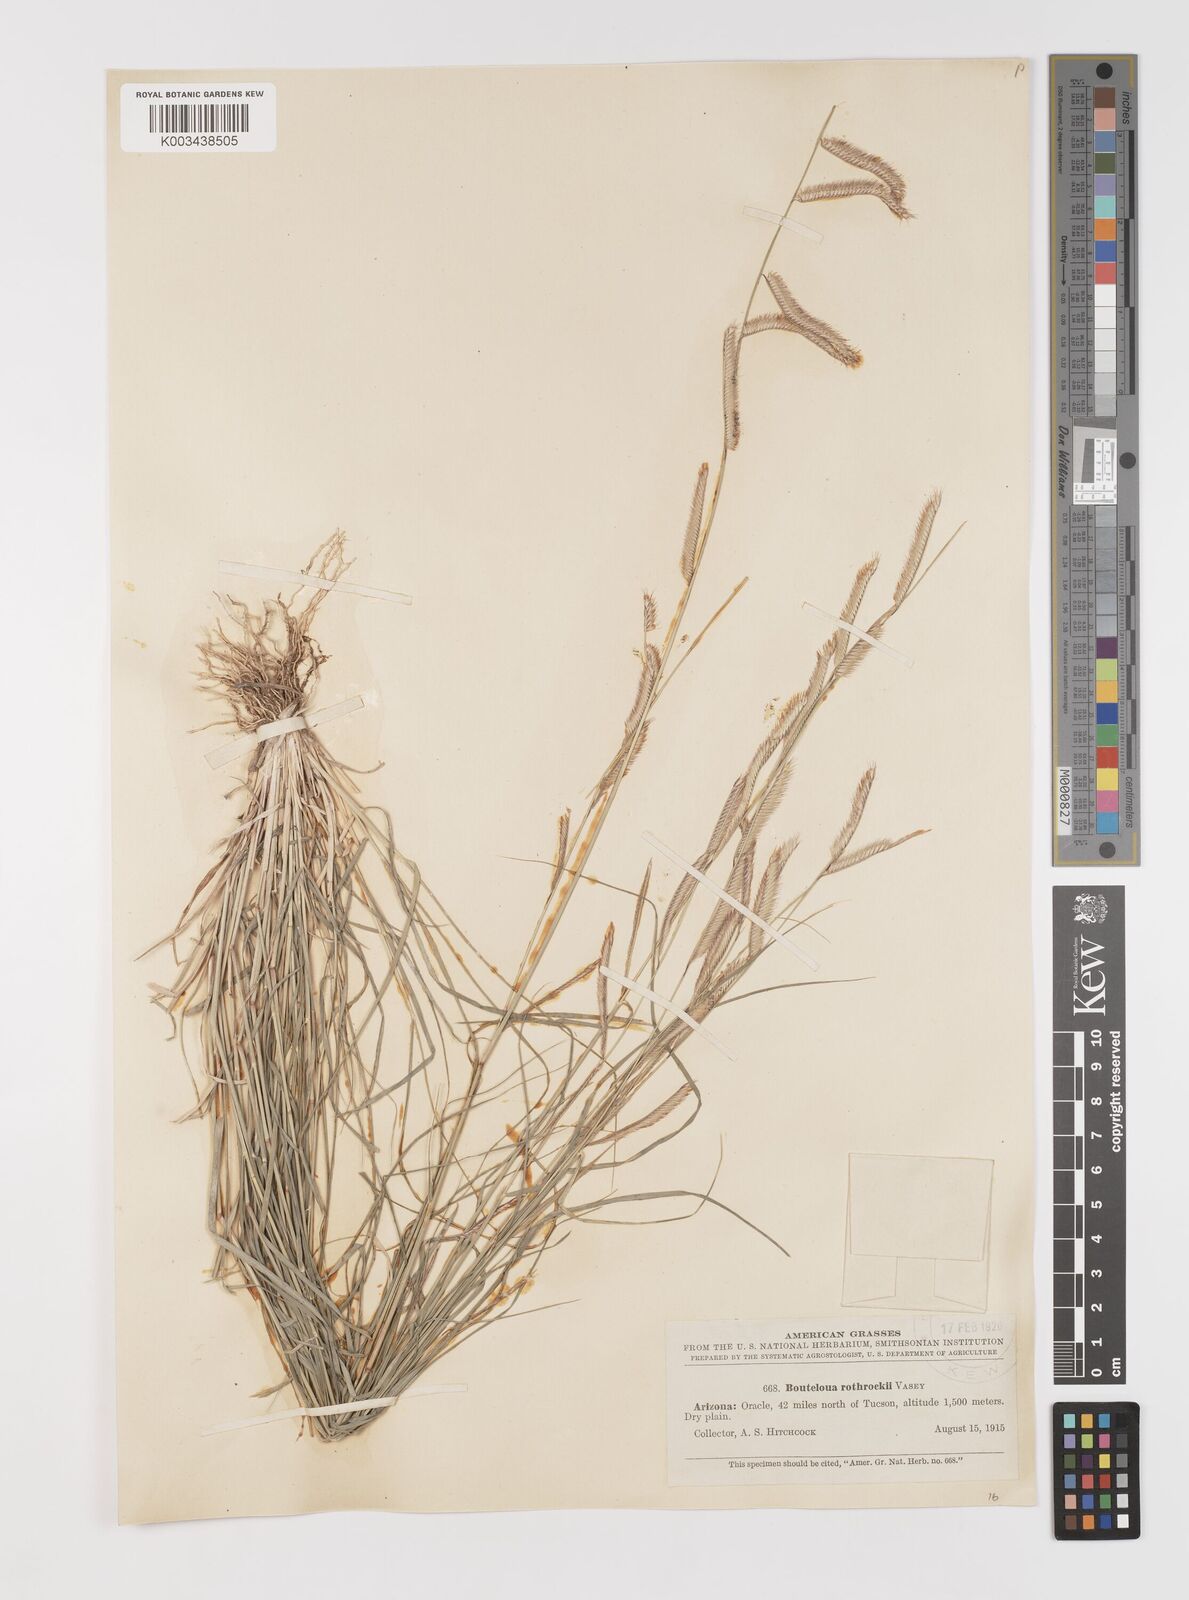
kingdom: Plantae
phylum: Tracheophyta
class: Liliopsida
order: Poales
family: Poaceae
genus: Bouteloua
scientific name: Bouteloua
